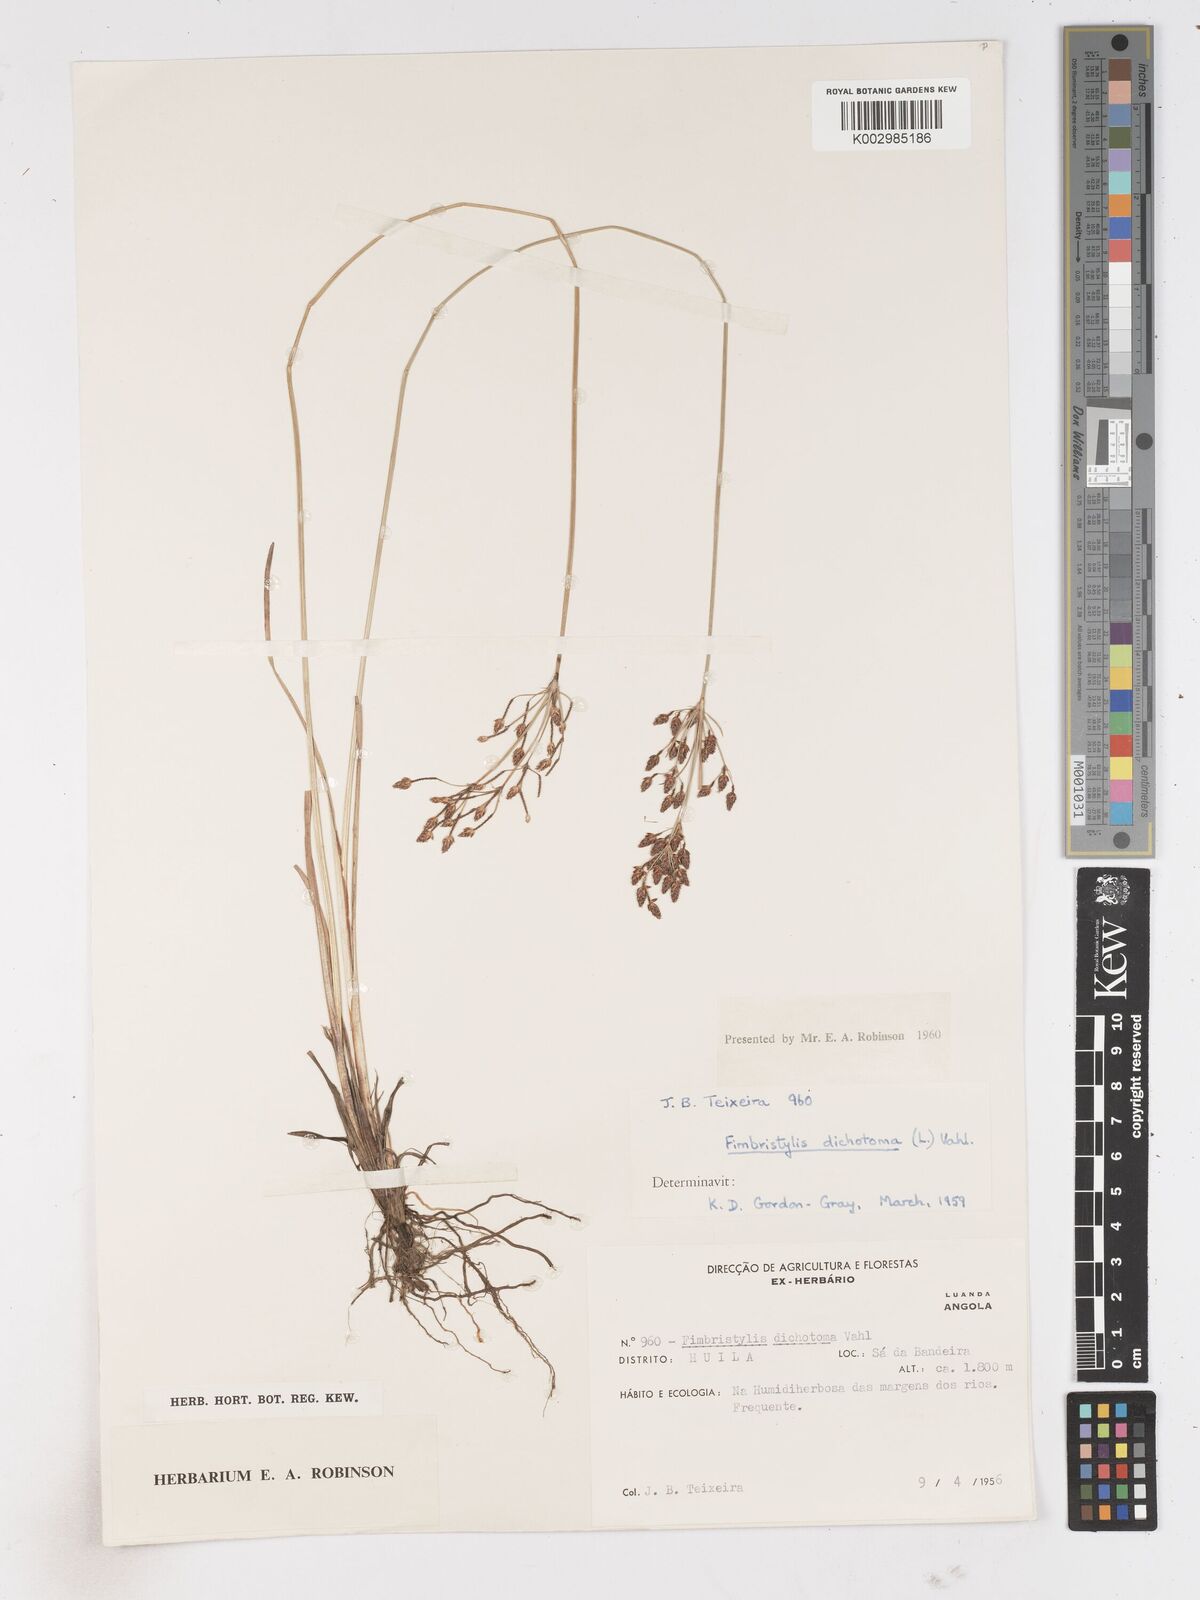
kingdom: Plantae
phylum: Tracheophyta
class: Liliopsida
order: Poales
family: Cyperaceae
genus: Fimbristylis
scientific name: Fimbristylis dichotoma
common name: Forked fimbry
